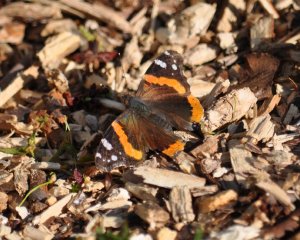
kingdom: Animalia
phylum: Arthropoda
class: Insecta
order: Lepidoptera
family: Nymphalidae
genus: Vanessa
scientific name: Vanessa atalanta
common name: Red Admiral
